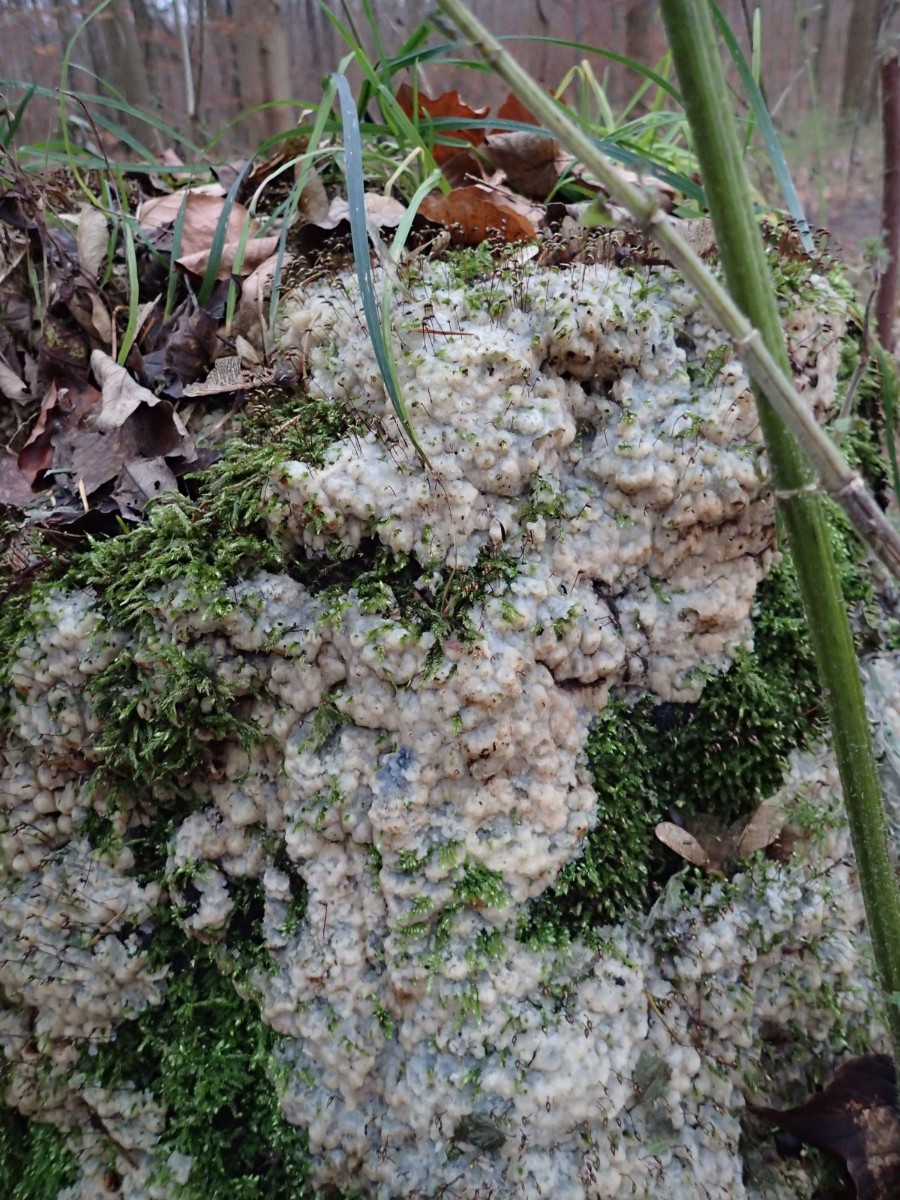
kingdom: Fungi
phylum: Basidiomycota
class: Agaricomycetes
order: Polyporales
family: Meruliaceae
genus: Physisporinus
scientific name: Physisporinus vitreus
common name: mastesvamp
